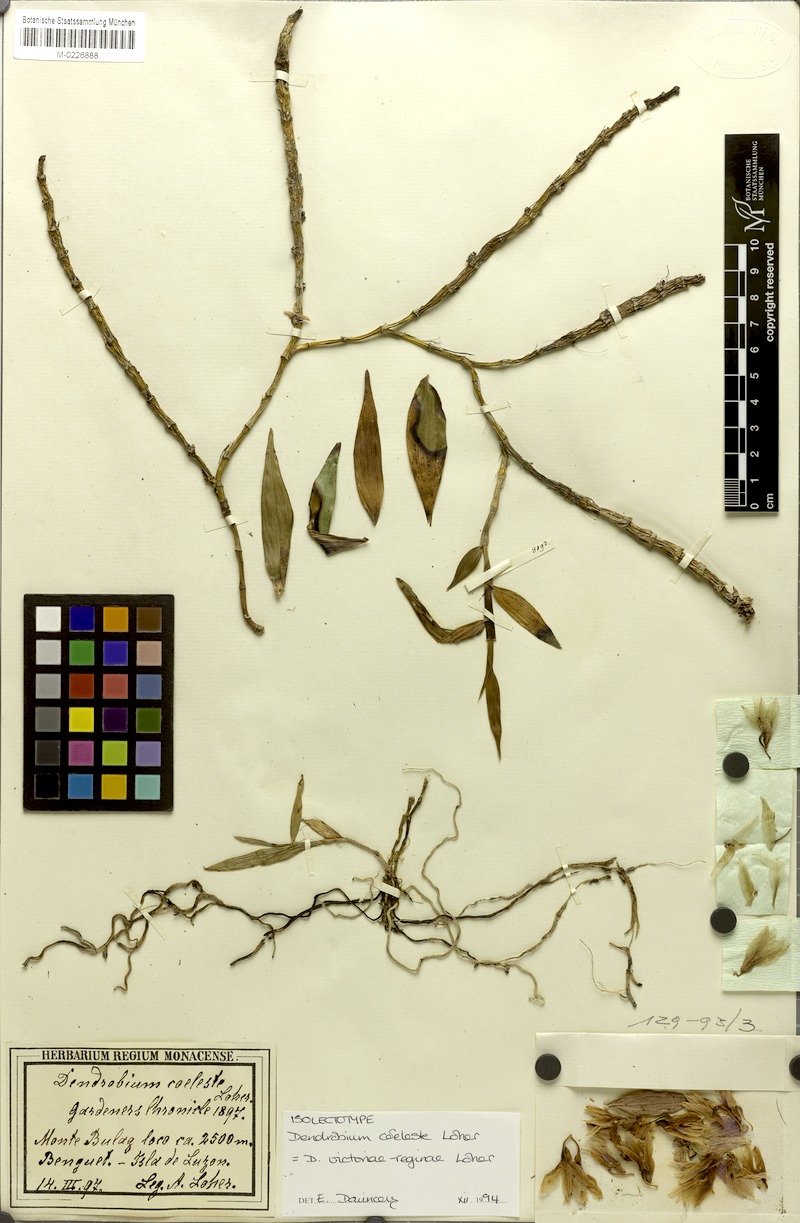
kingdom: Plantae
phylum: Tracheophyta
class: Liliopsida
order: Asparagales
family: Orchidaceae
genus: Dendrobium
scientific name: Dendrobium victoriae-reginae
